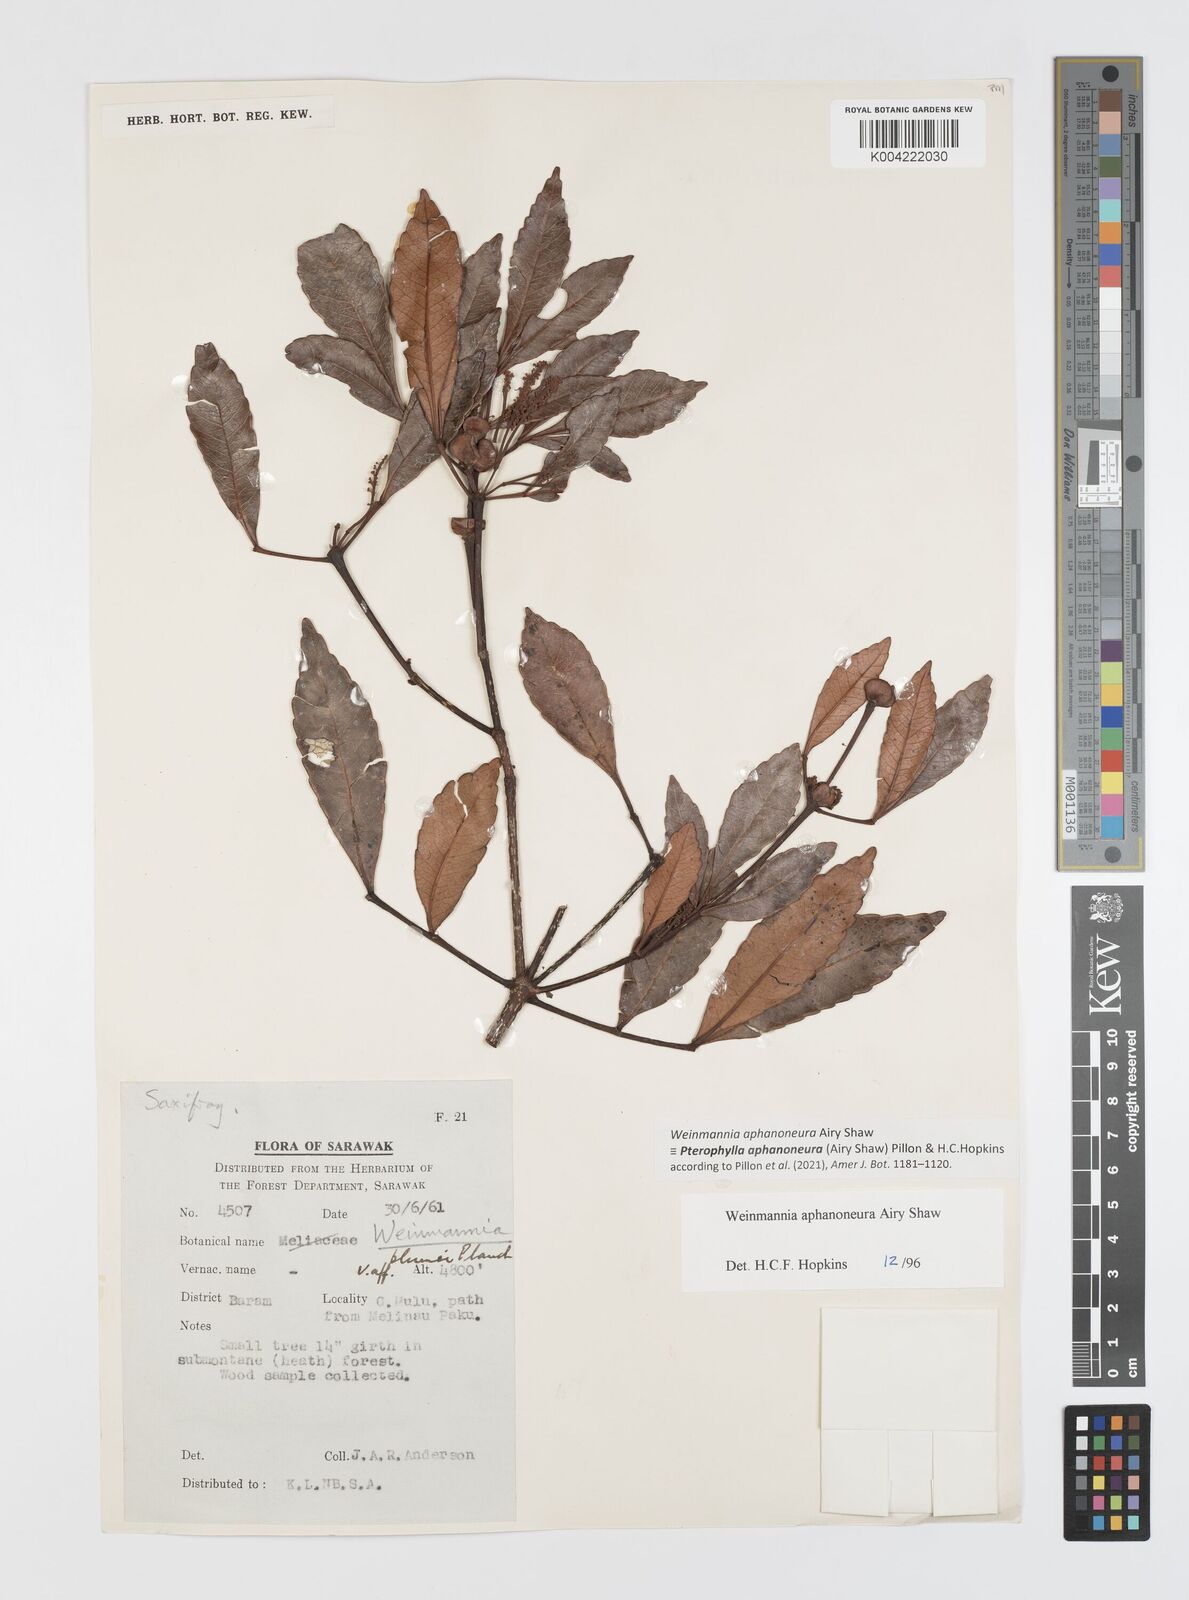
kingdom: Plantae
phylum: Tracheophyta
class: Magnoliopsida
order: Oxalidales
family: Cunoniaceae
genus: Pterophylla
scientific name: Pterophylla aphanoneura
